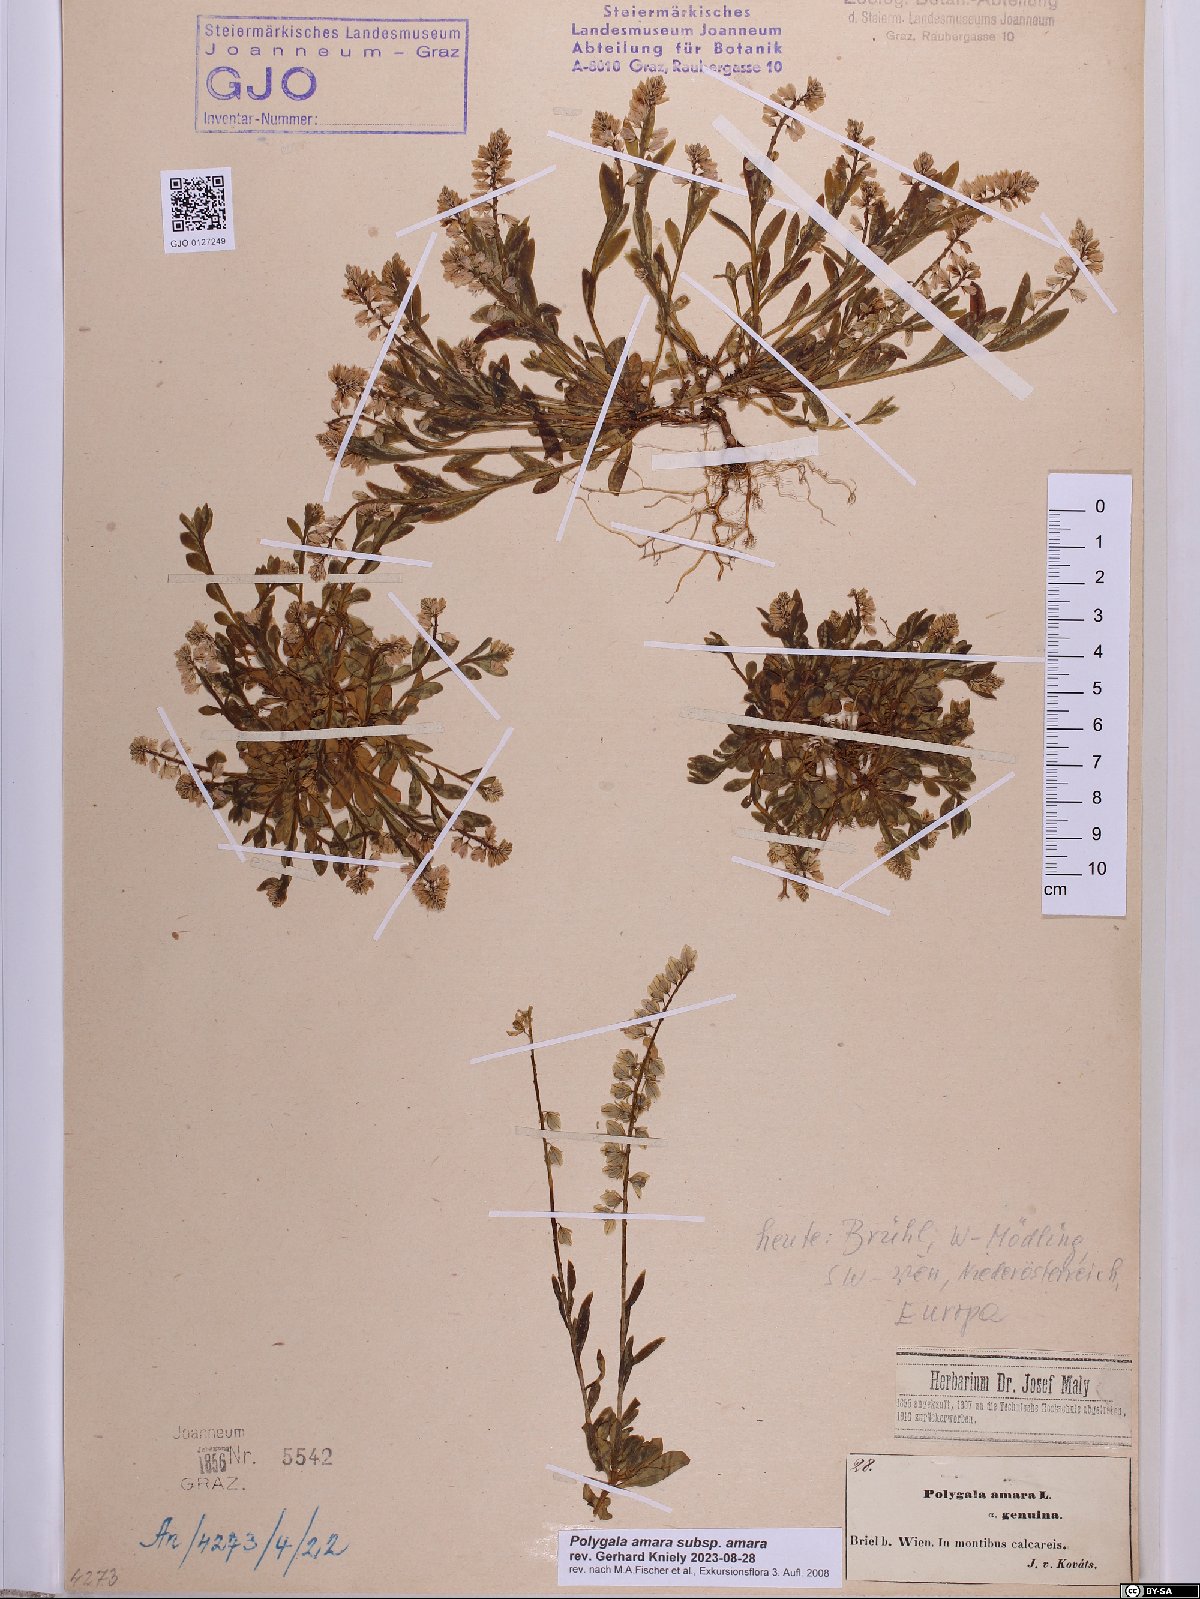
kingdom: Plantae
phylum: Tracheophyta
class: Magnoliopsida
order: Fabales
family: Polygalaceae
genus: Polygala
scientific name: Polygala amara
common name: Milkwort
